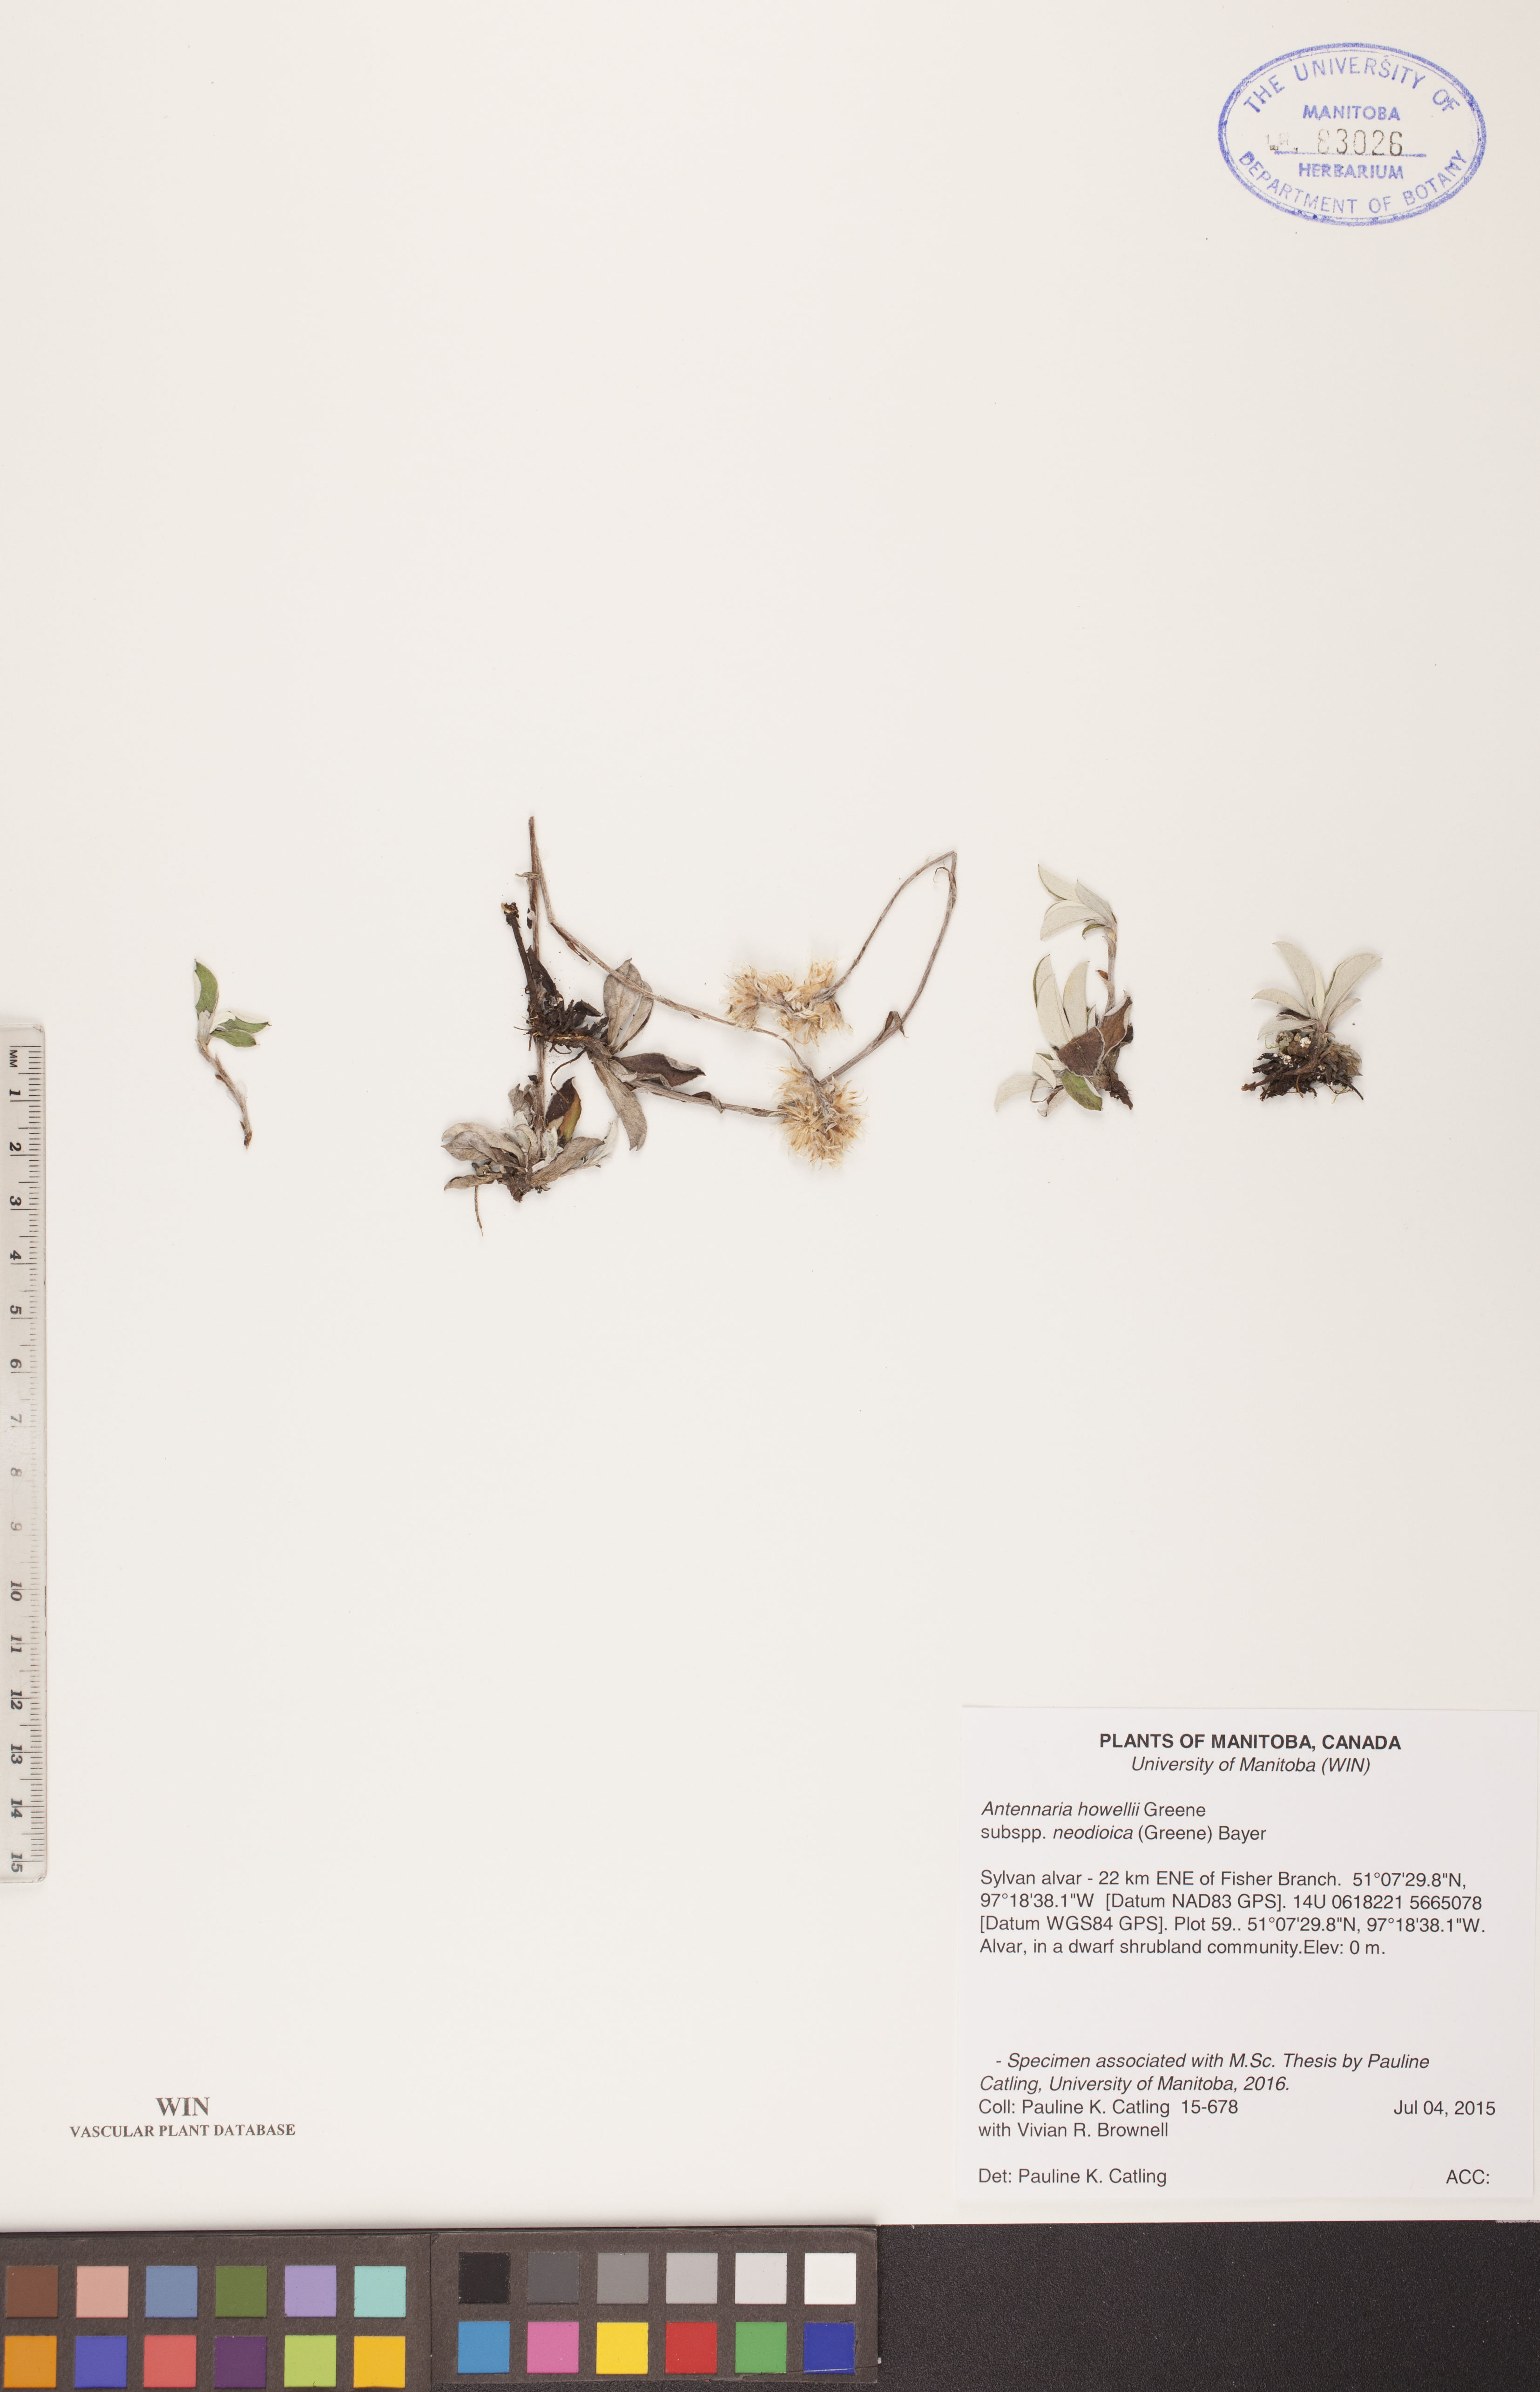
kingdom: Plantae
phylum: Tracheophyta
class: Magnoliopsida
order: Asterales
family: Asteraceae
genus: Antennaria
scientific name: Antennaria howellii
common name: Howell's pussytoes
